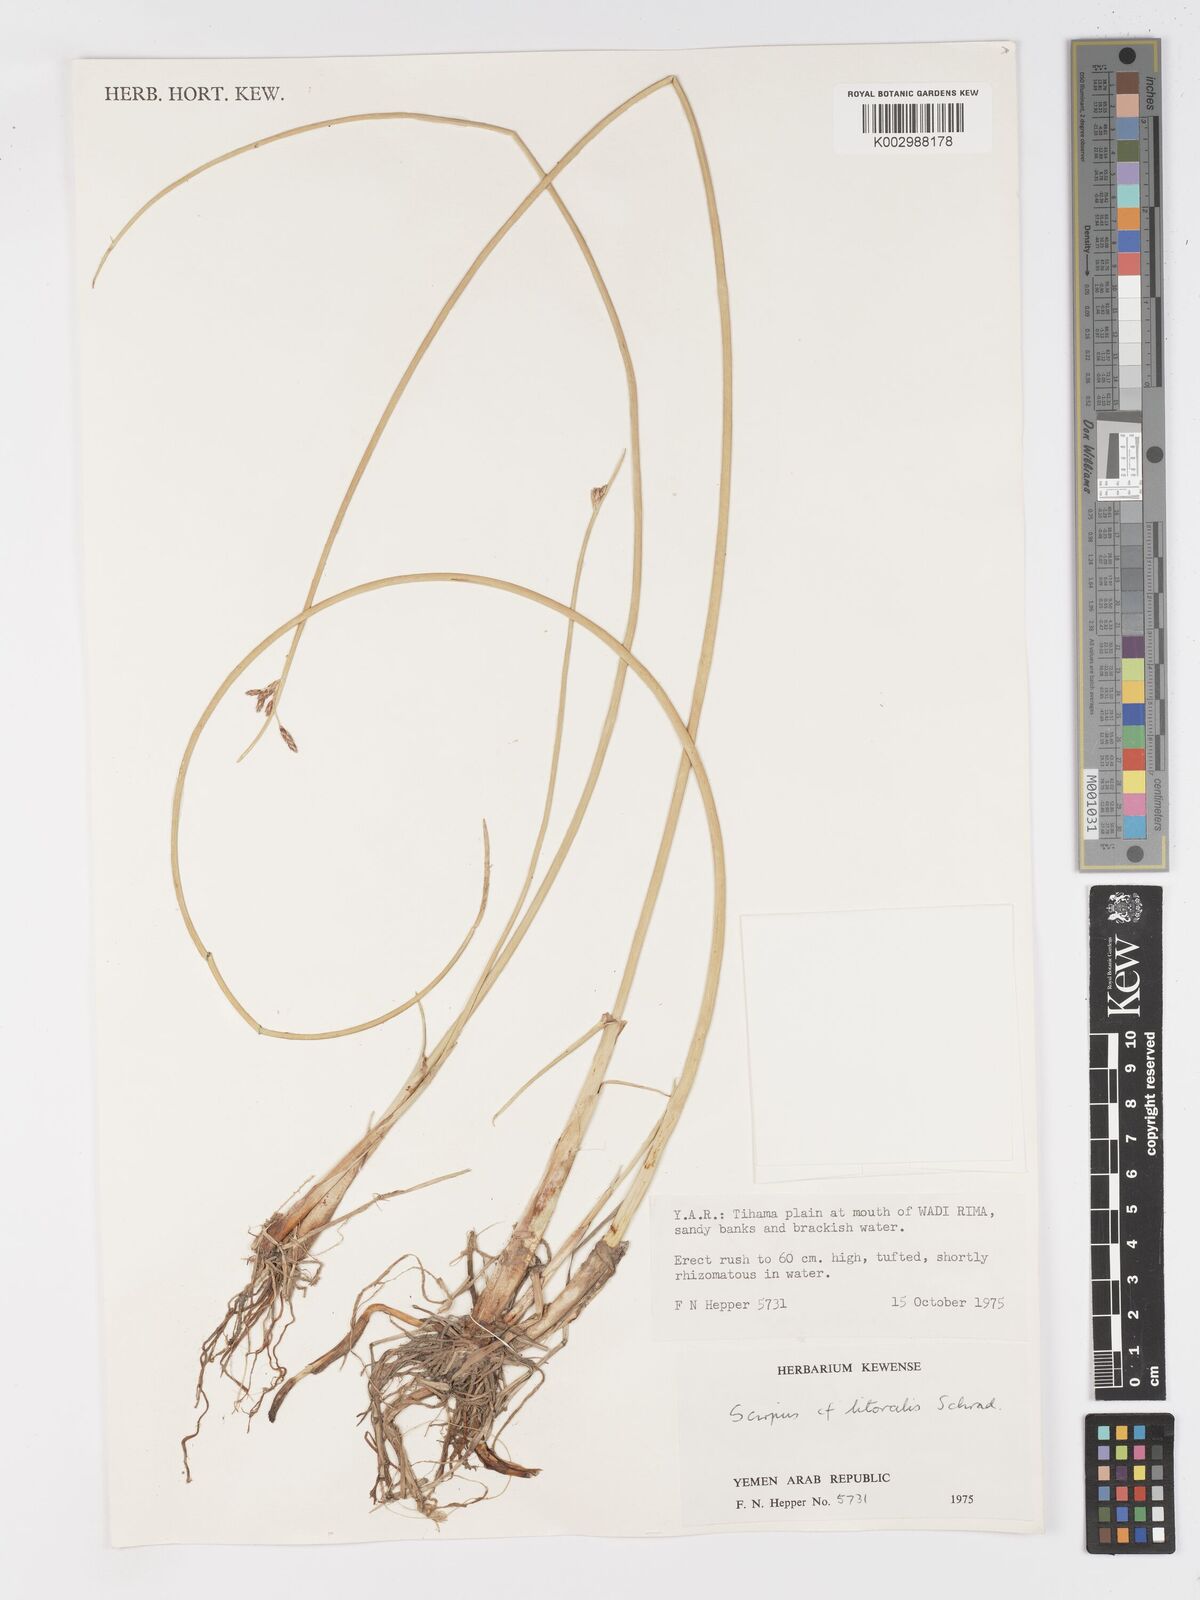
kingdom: Plantae
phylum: Tracheophyta
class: Liliopsida
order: Poales
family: Cyperaceae
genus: Schoenoplectus
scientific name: Schoenoplectus litoralis
